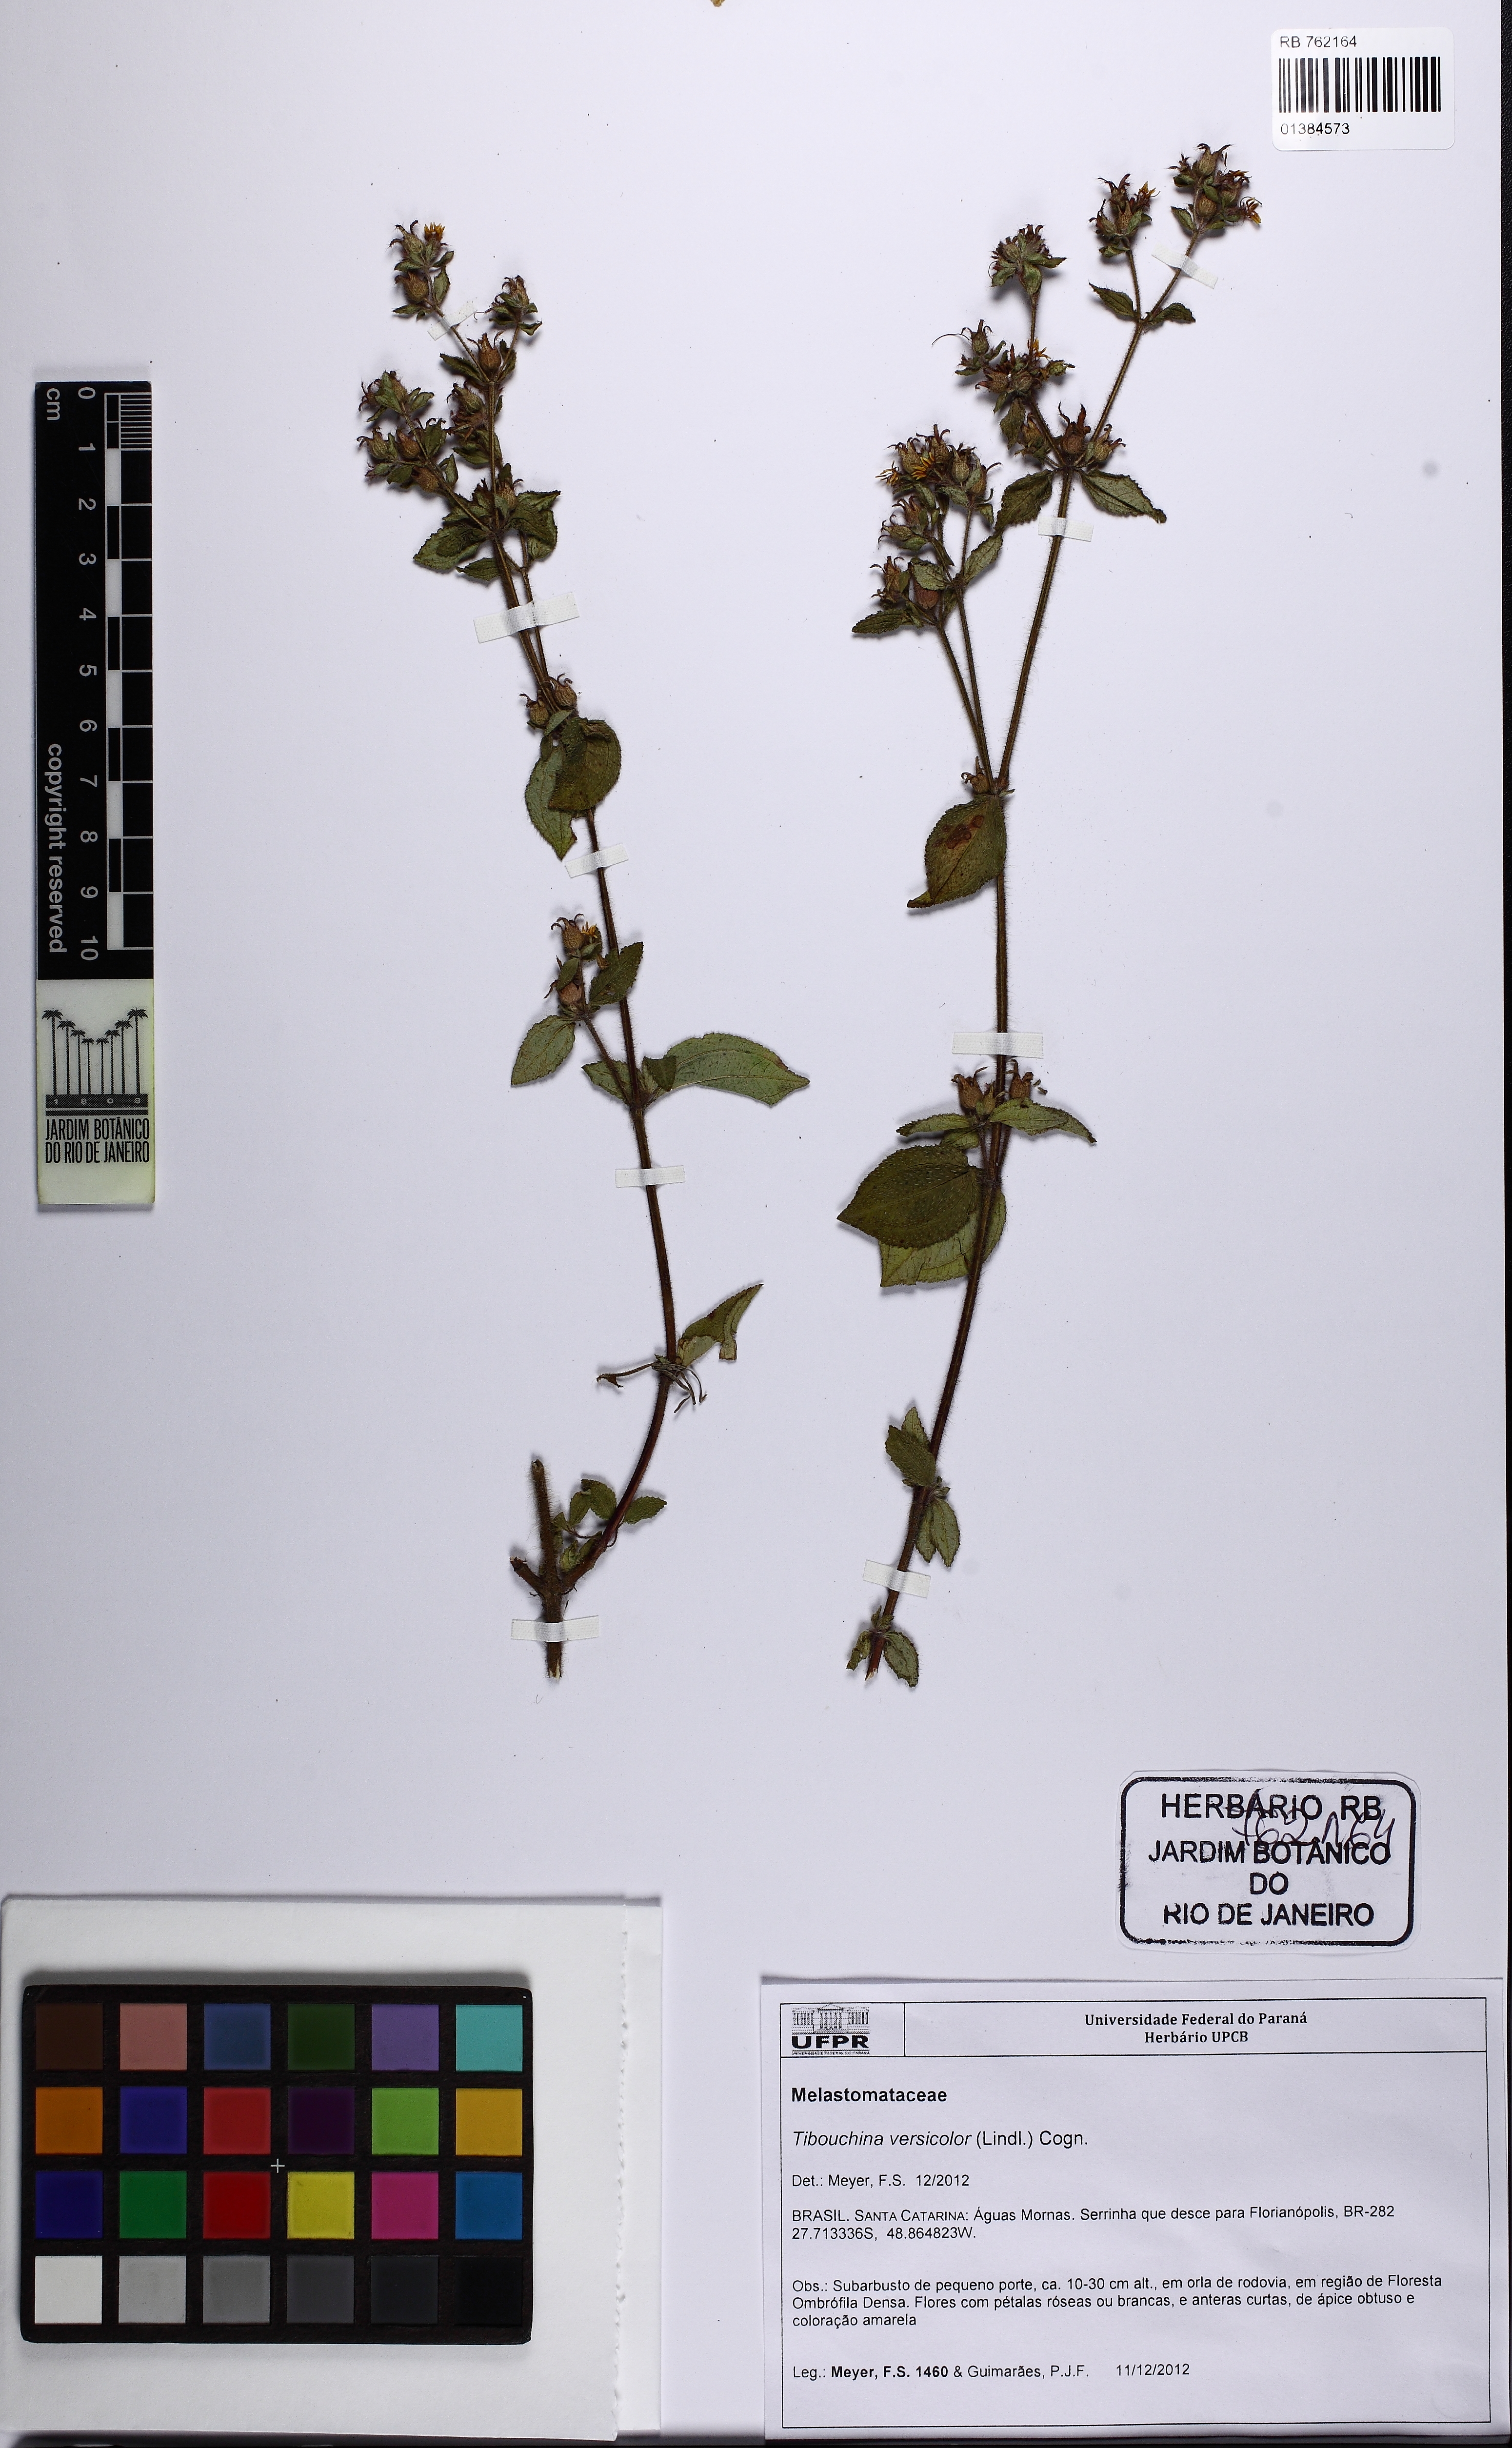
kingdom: Plantae
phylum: Tracheophyta
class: Magnoliopsida
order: Myrtales
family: Melastomataceae
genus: Chaetogastra
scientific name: Chaetogastra versicolor
